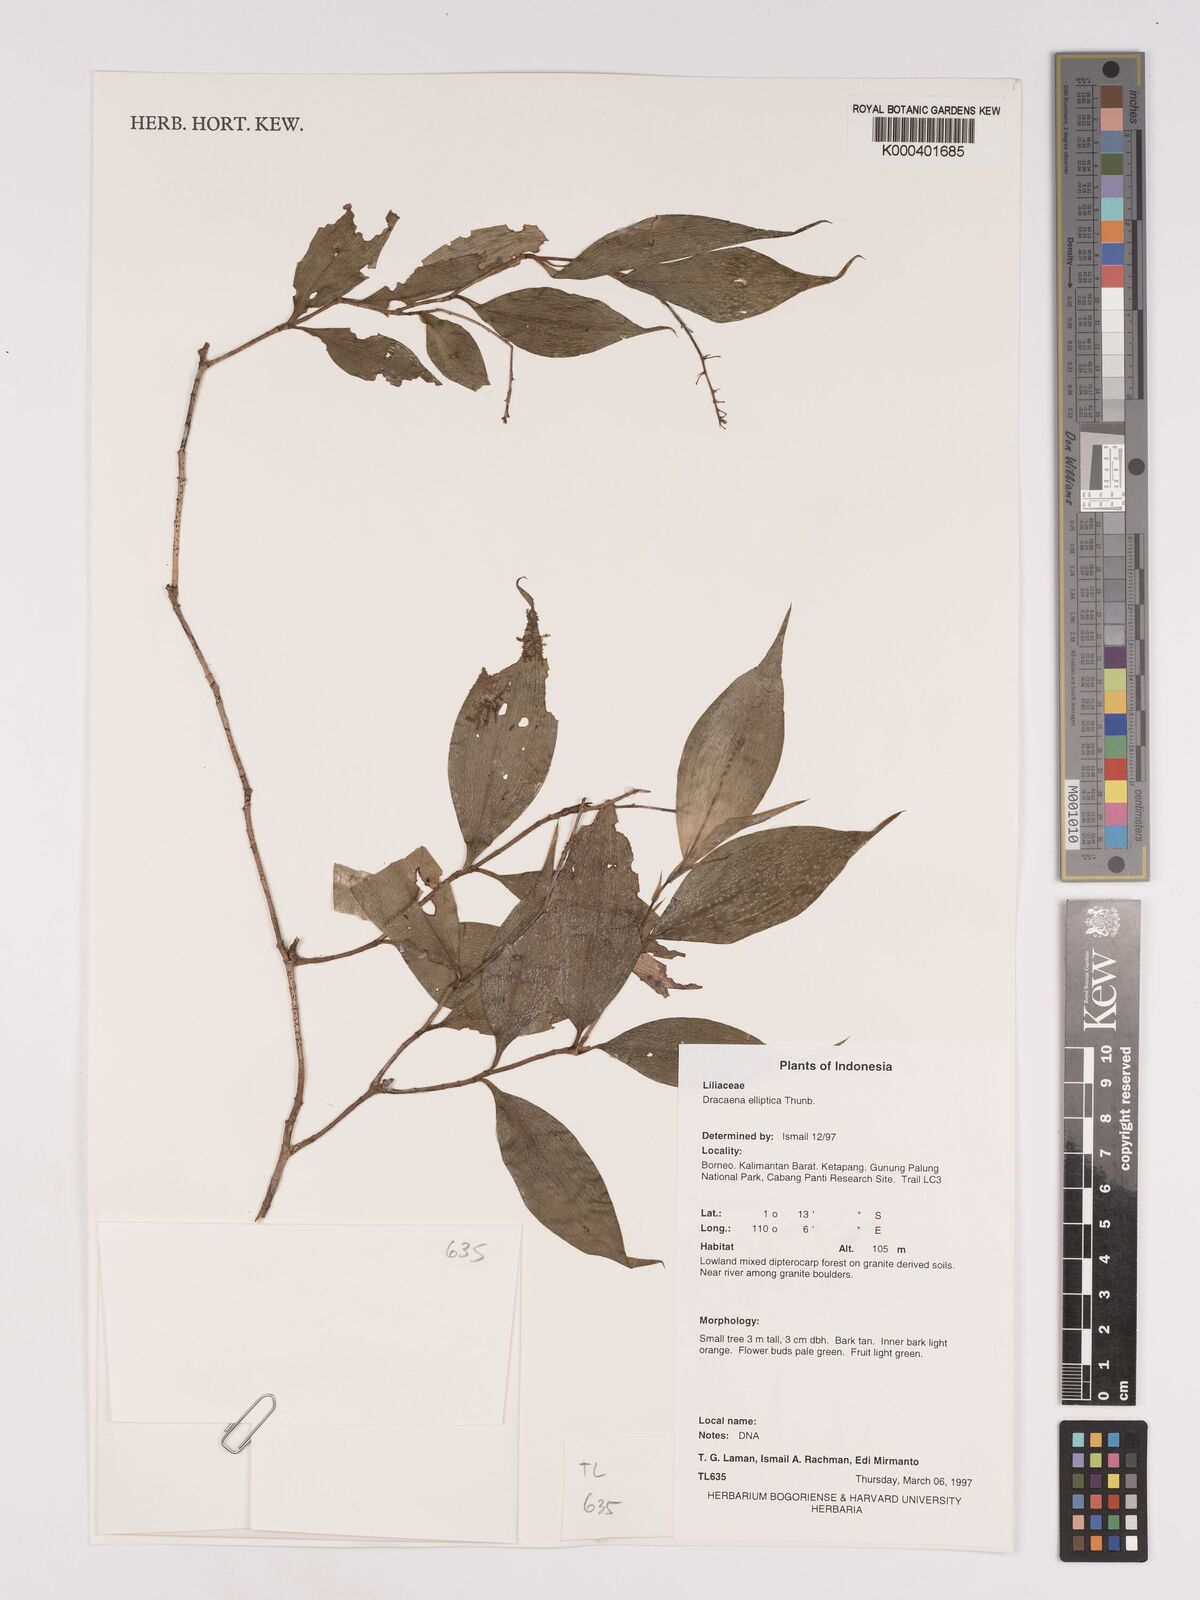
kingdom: Plantae
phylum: Tracheophyta
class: Liliopsida
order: Asparagales
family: Asparagaceae
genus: Dracaena
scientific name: Dracaena elliptica
